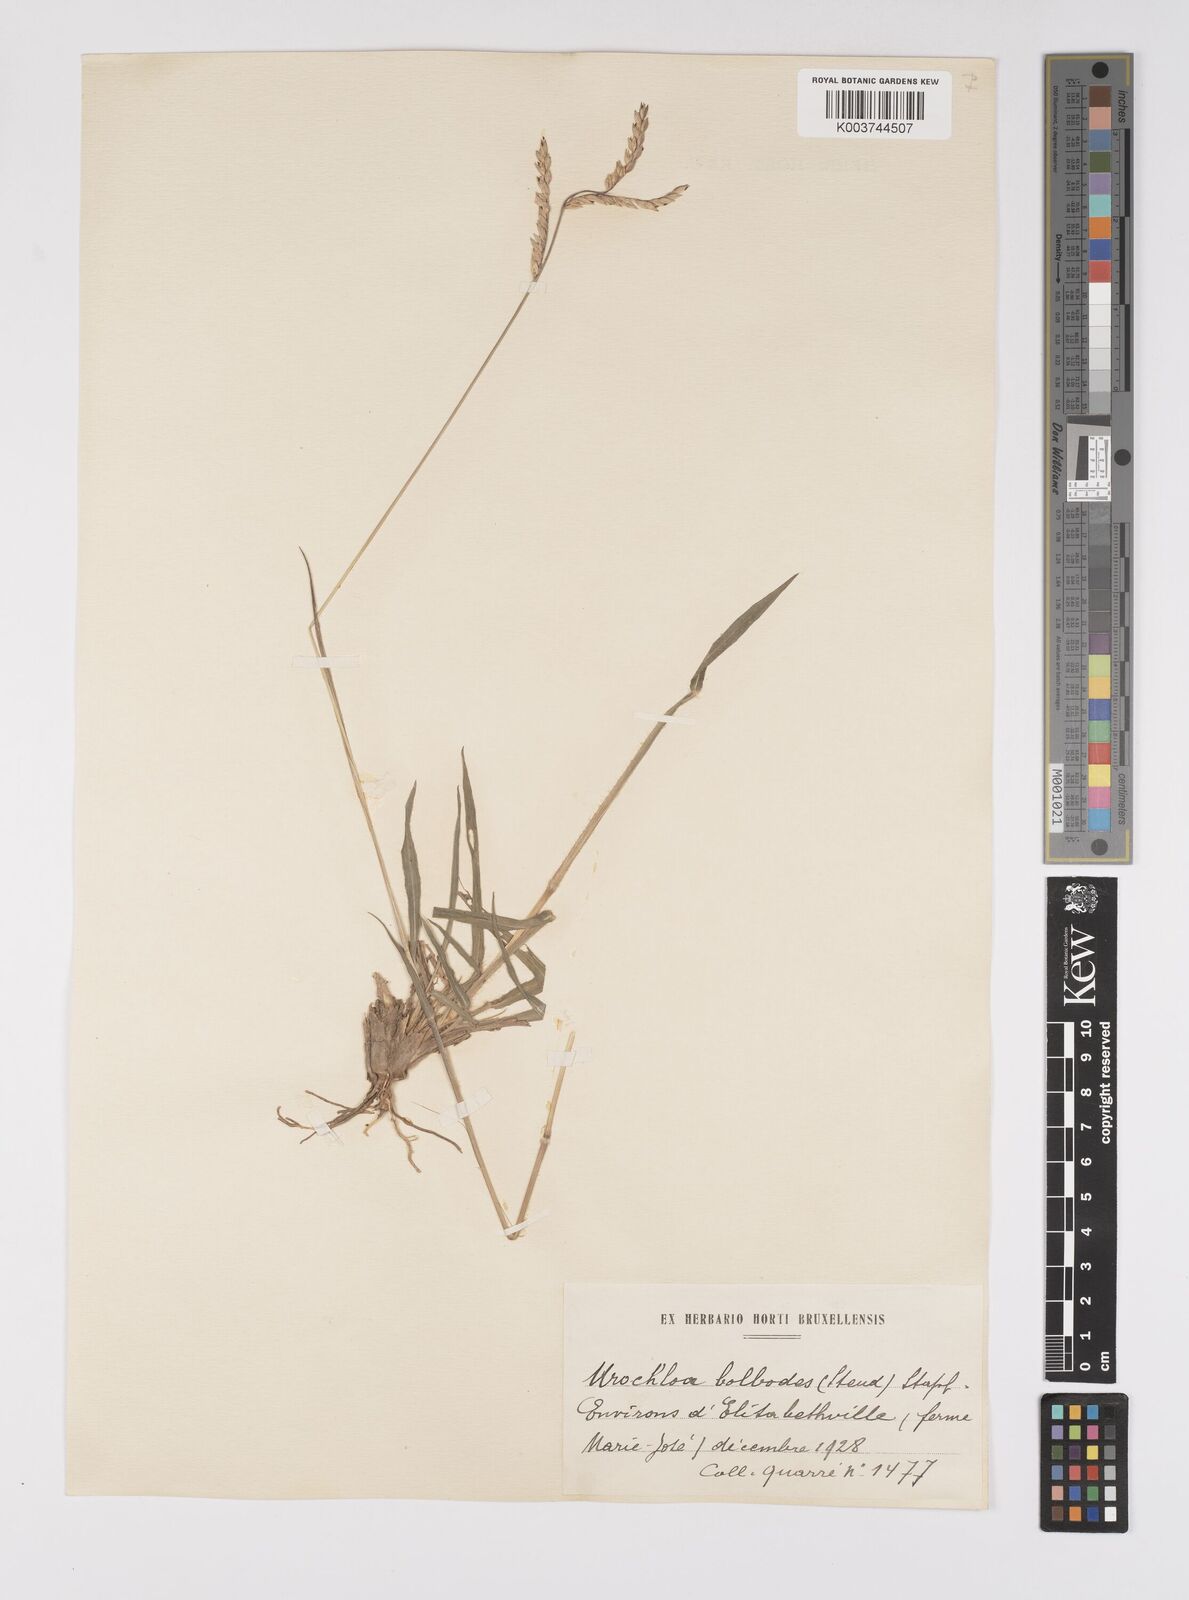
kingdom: Plantae
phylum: Tracheophyta
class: Liliopsida
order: Poales
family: Poaceae
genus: Urochloa
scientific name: Urochloa oligotricha
